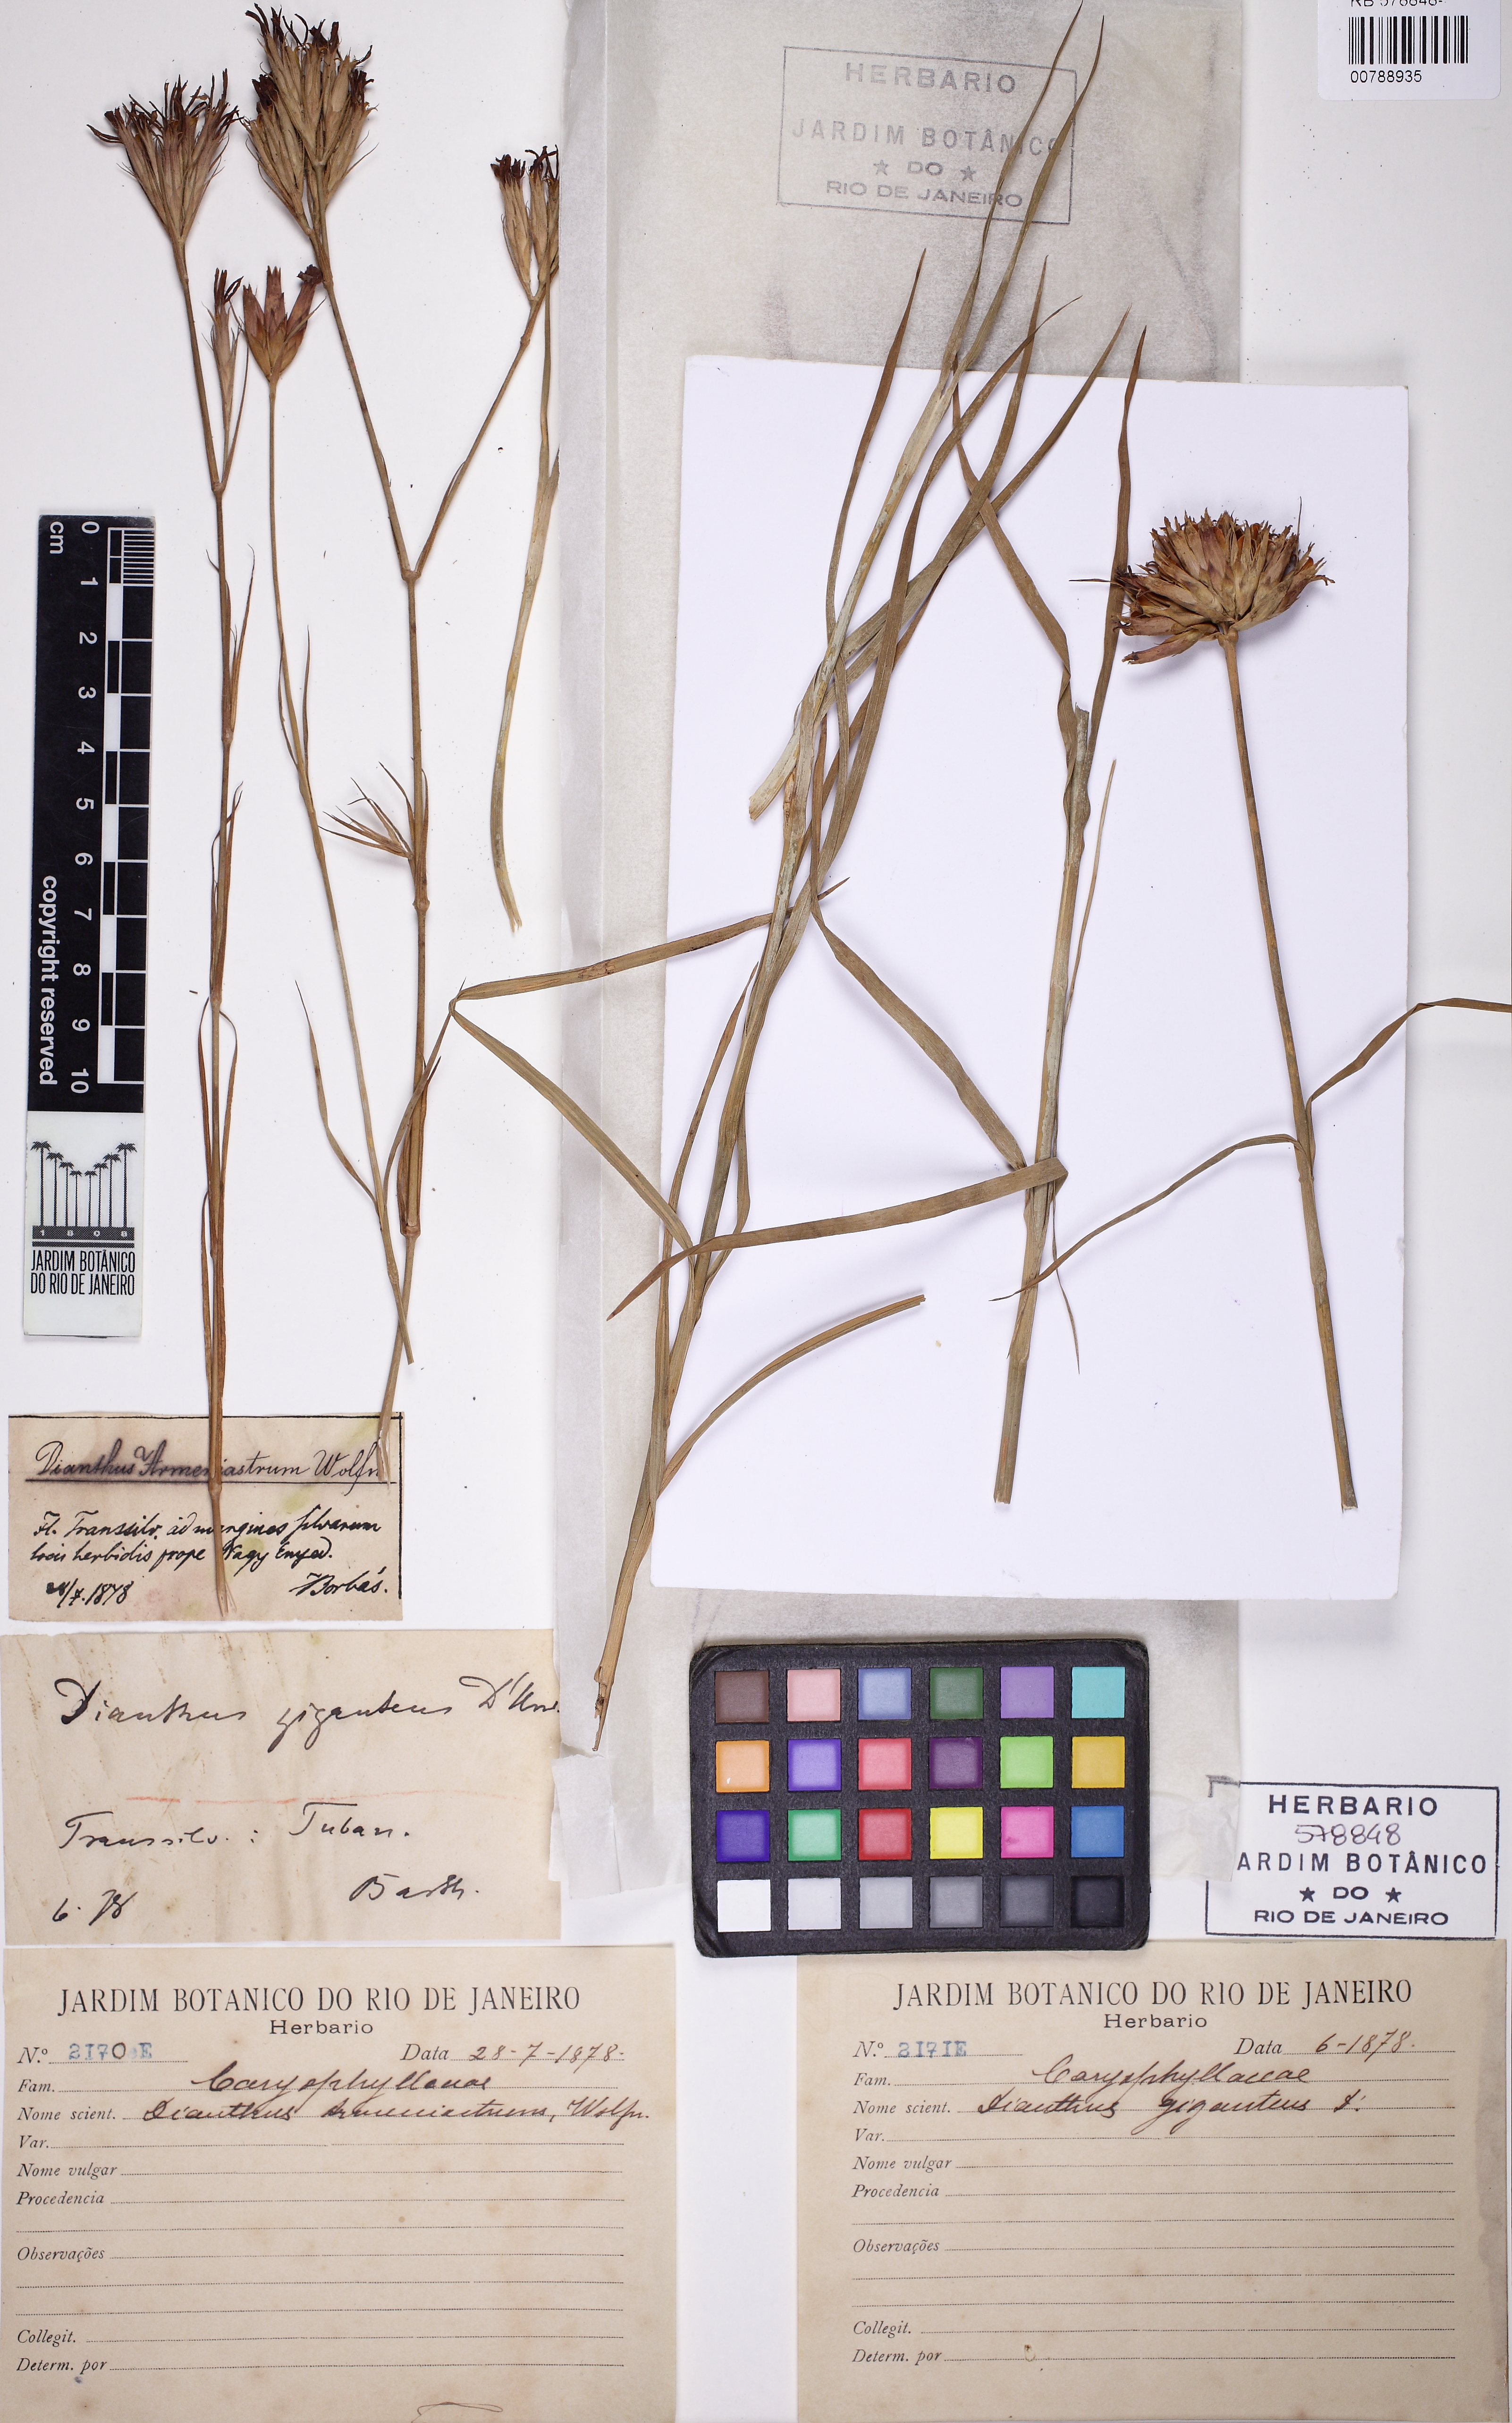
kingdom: Plantae
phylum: Tracheophyta
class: Magnoliopsida
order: Caryophyllales
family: Caryophyllaceae
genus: Dianthus
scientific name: Dianthus giganteus
